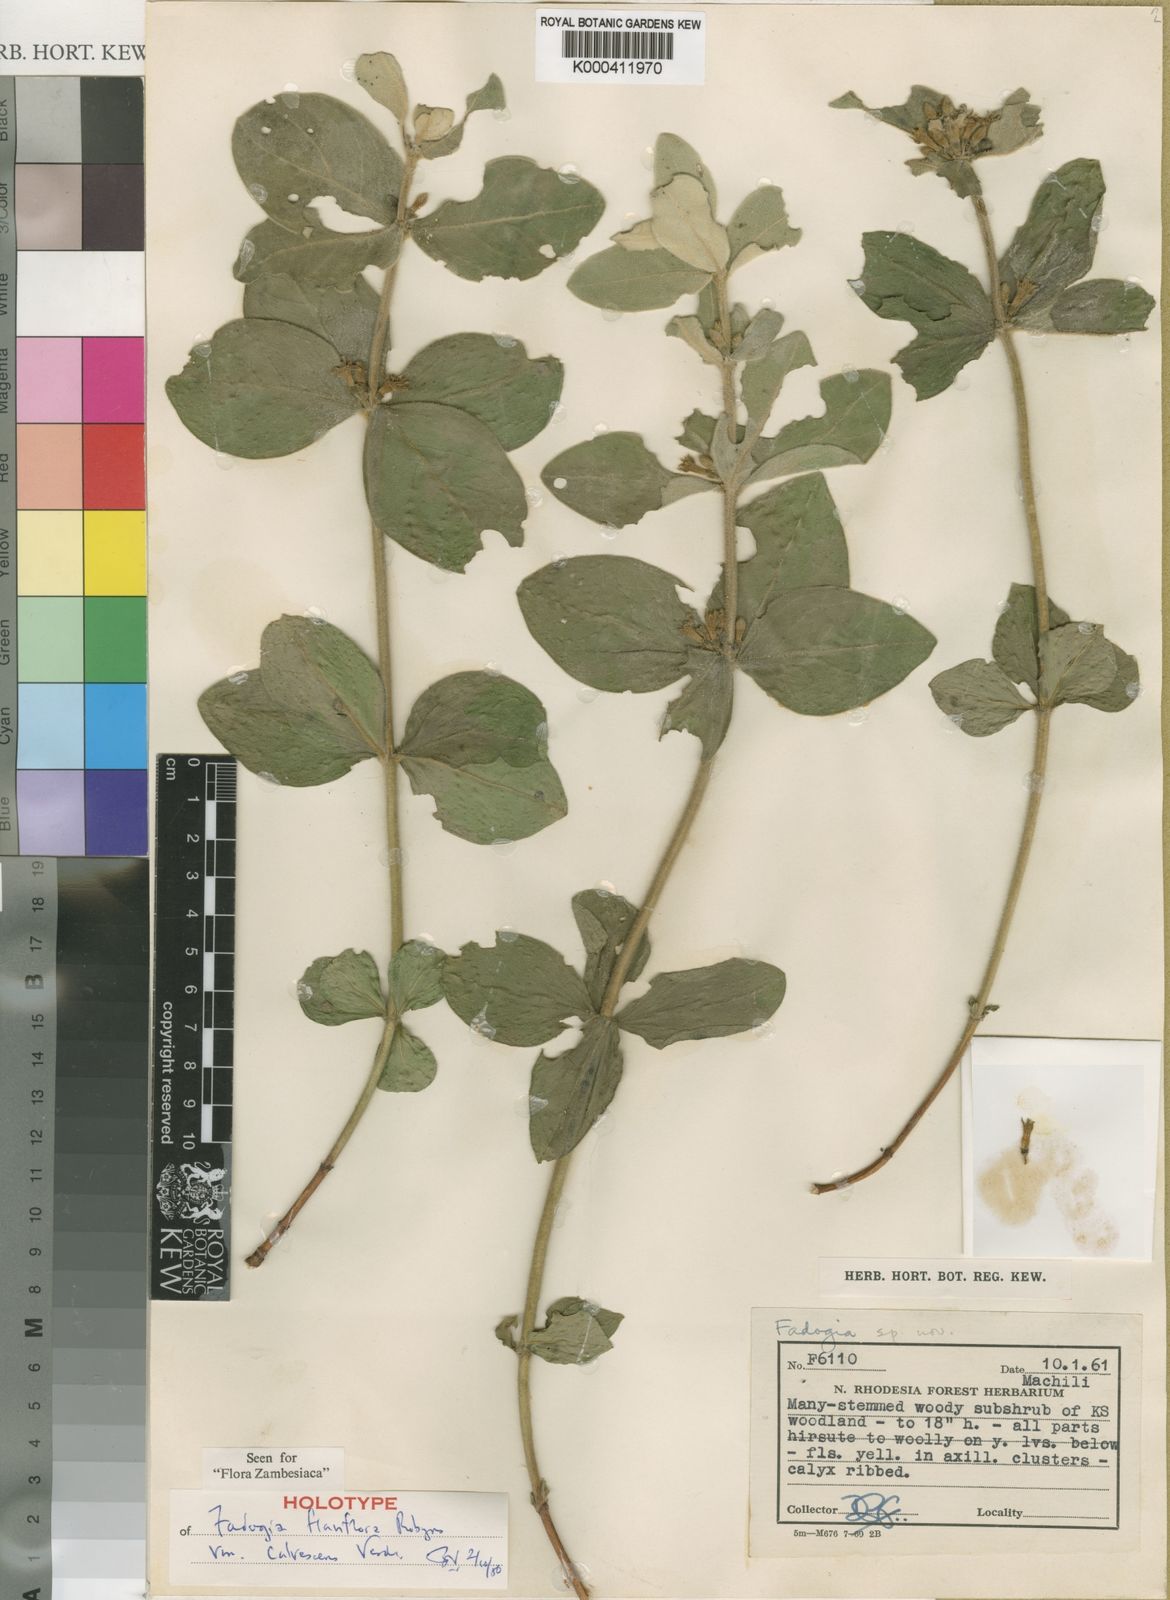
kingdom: Plantae
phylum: Tracheophyta
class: Magnoliopsida
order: Gentianales
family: Rubiaceae
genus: Fadogia
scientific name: Fadogia tomentosa
